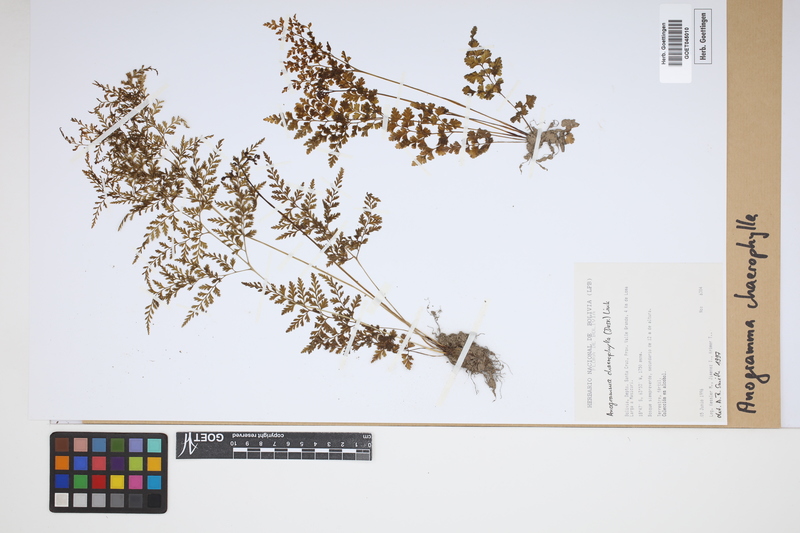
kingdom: Plantae
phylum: Tracheophyta
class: Polypodiopsida
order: Polypodiales
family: Pteridaceae
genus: Gastoniella
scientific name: Gastoniella chaerophylla
